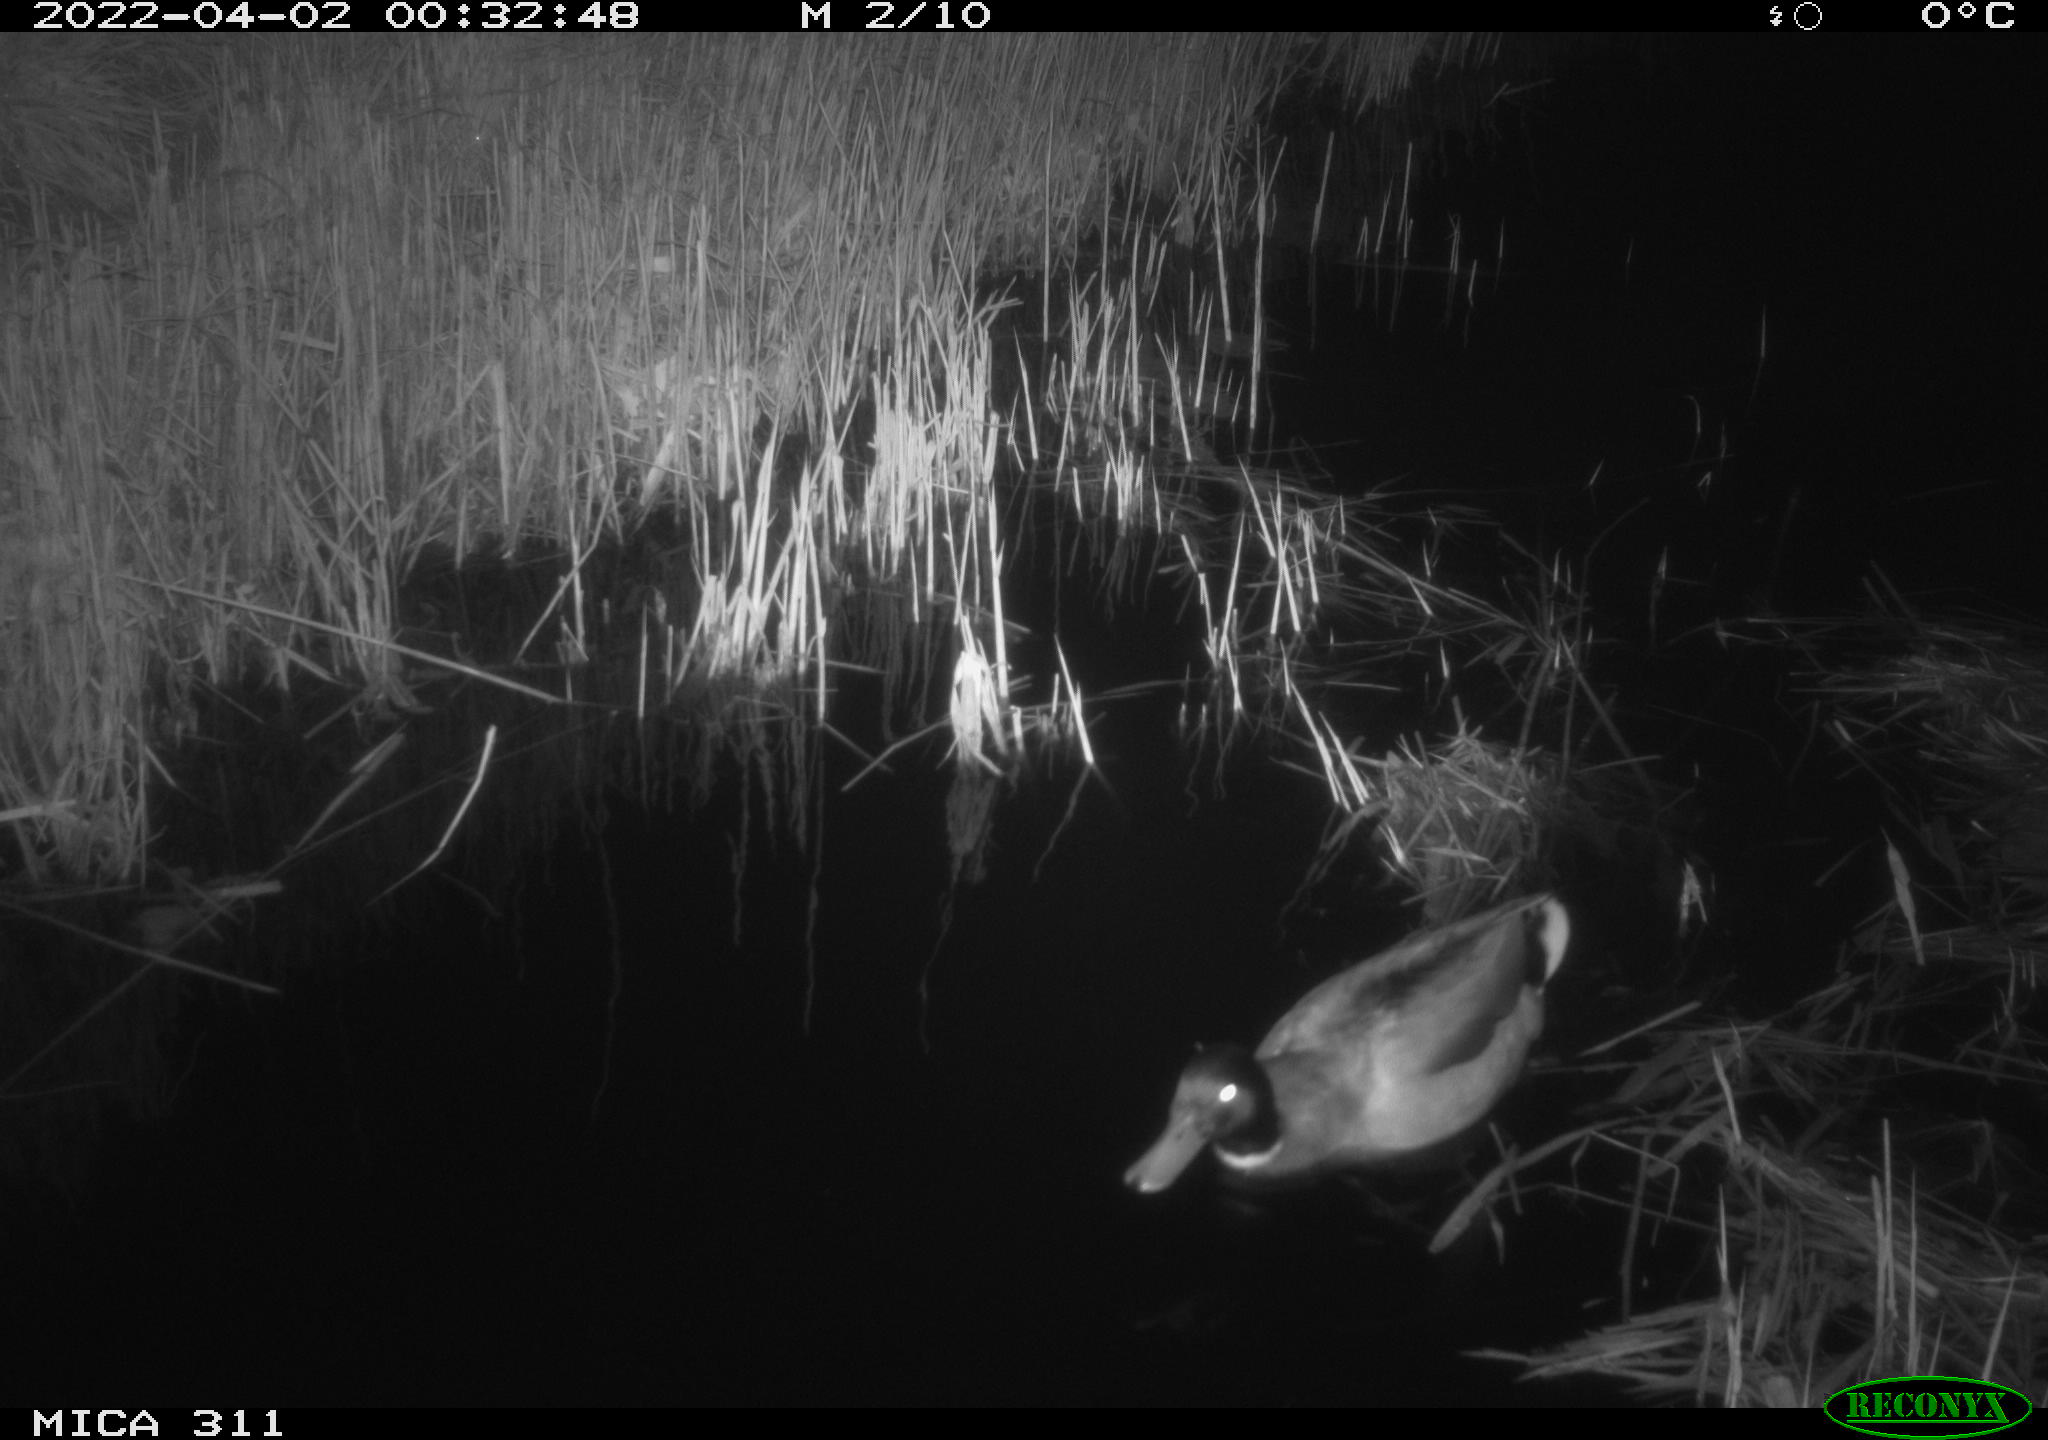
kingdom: Animalia
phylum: Chordata
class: Aves
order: Anseriformes
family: Anatidae
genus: Anas
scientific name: Anas platyrhynchos
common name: Mallard
